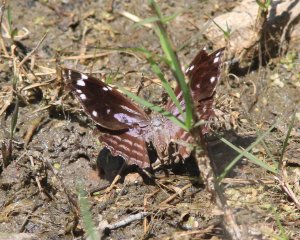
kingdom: Animalia
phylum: Arthropoda
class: Insecta
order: Lepidoptera
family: Nymphalidae
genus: Myscelia
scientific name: Myscelia cyananthe
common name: Blackened Bluewing
